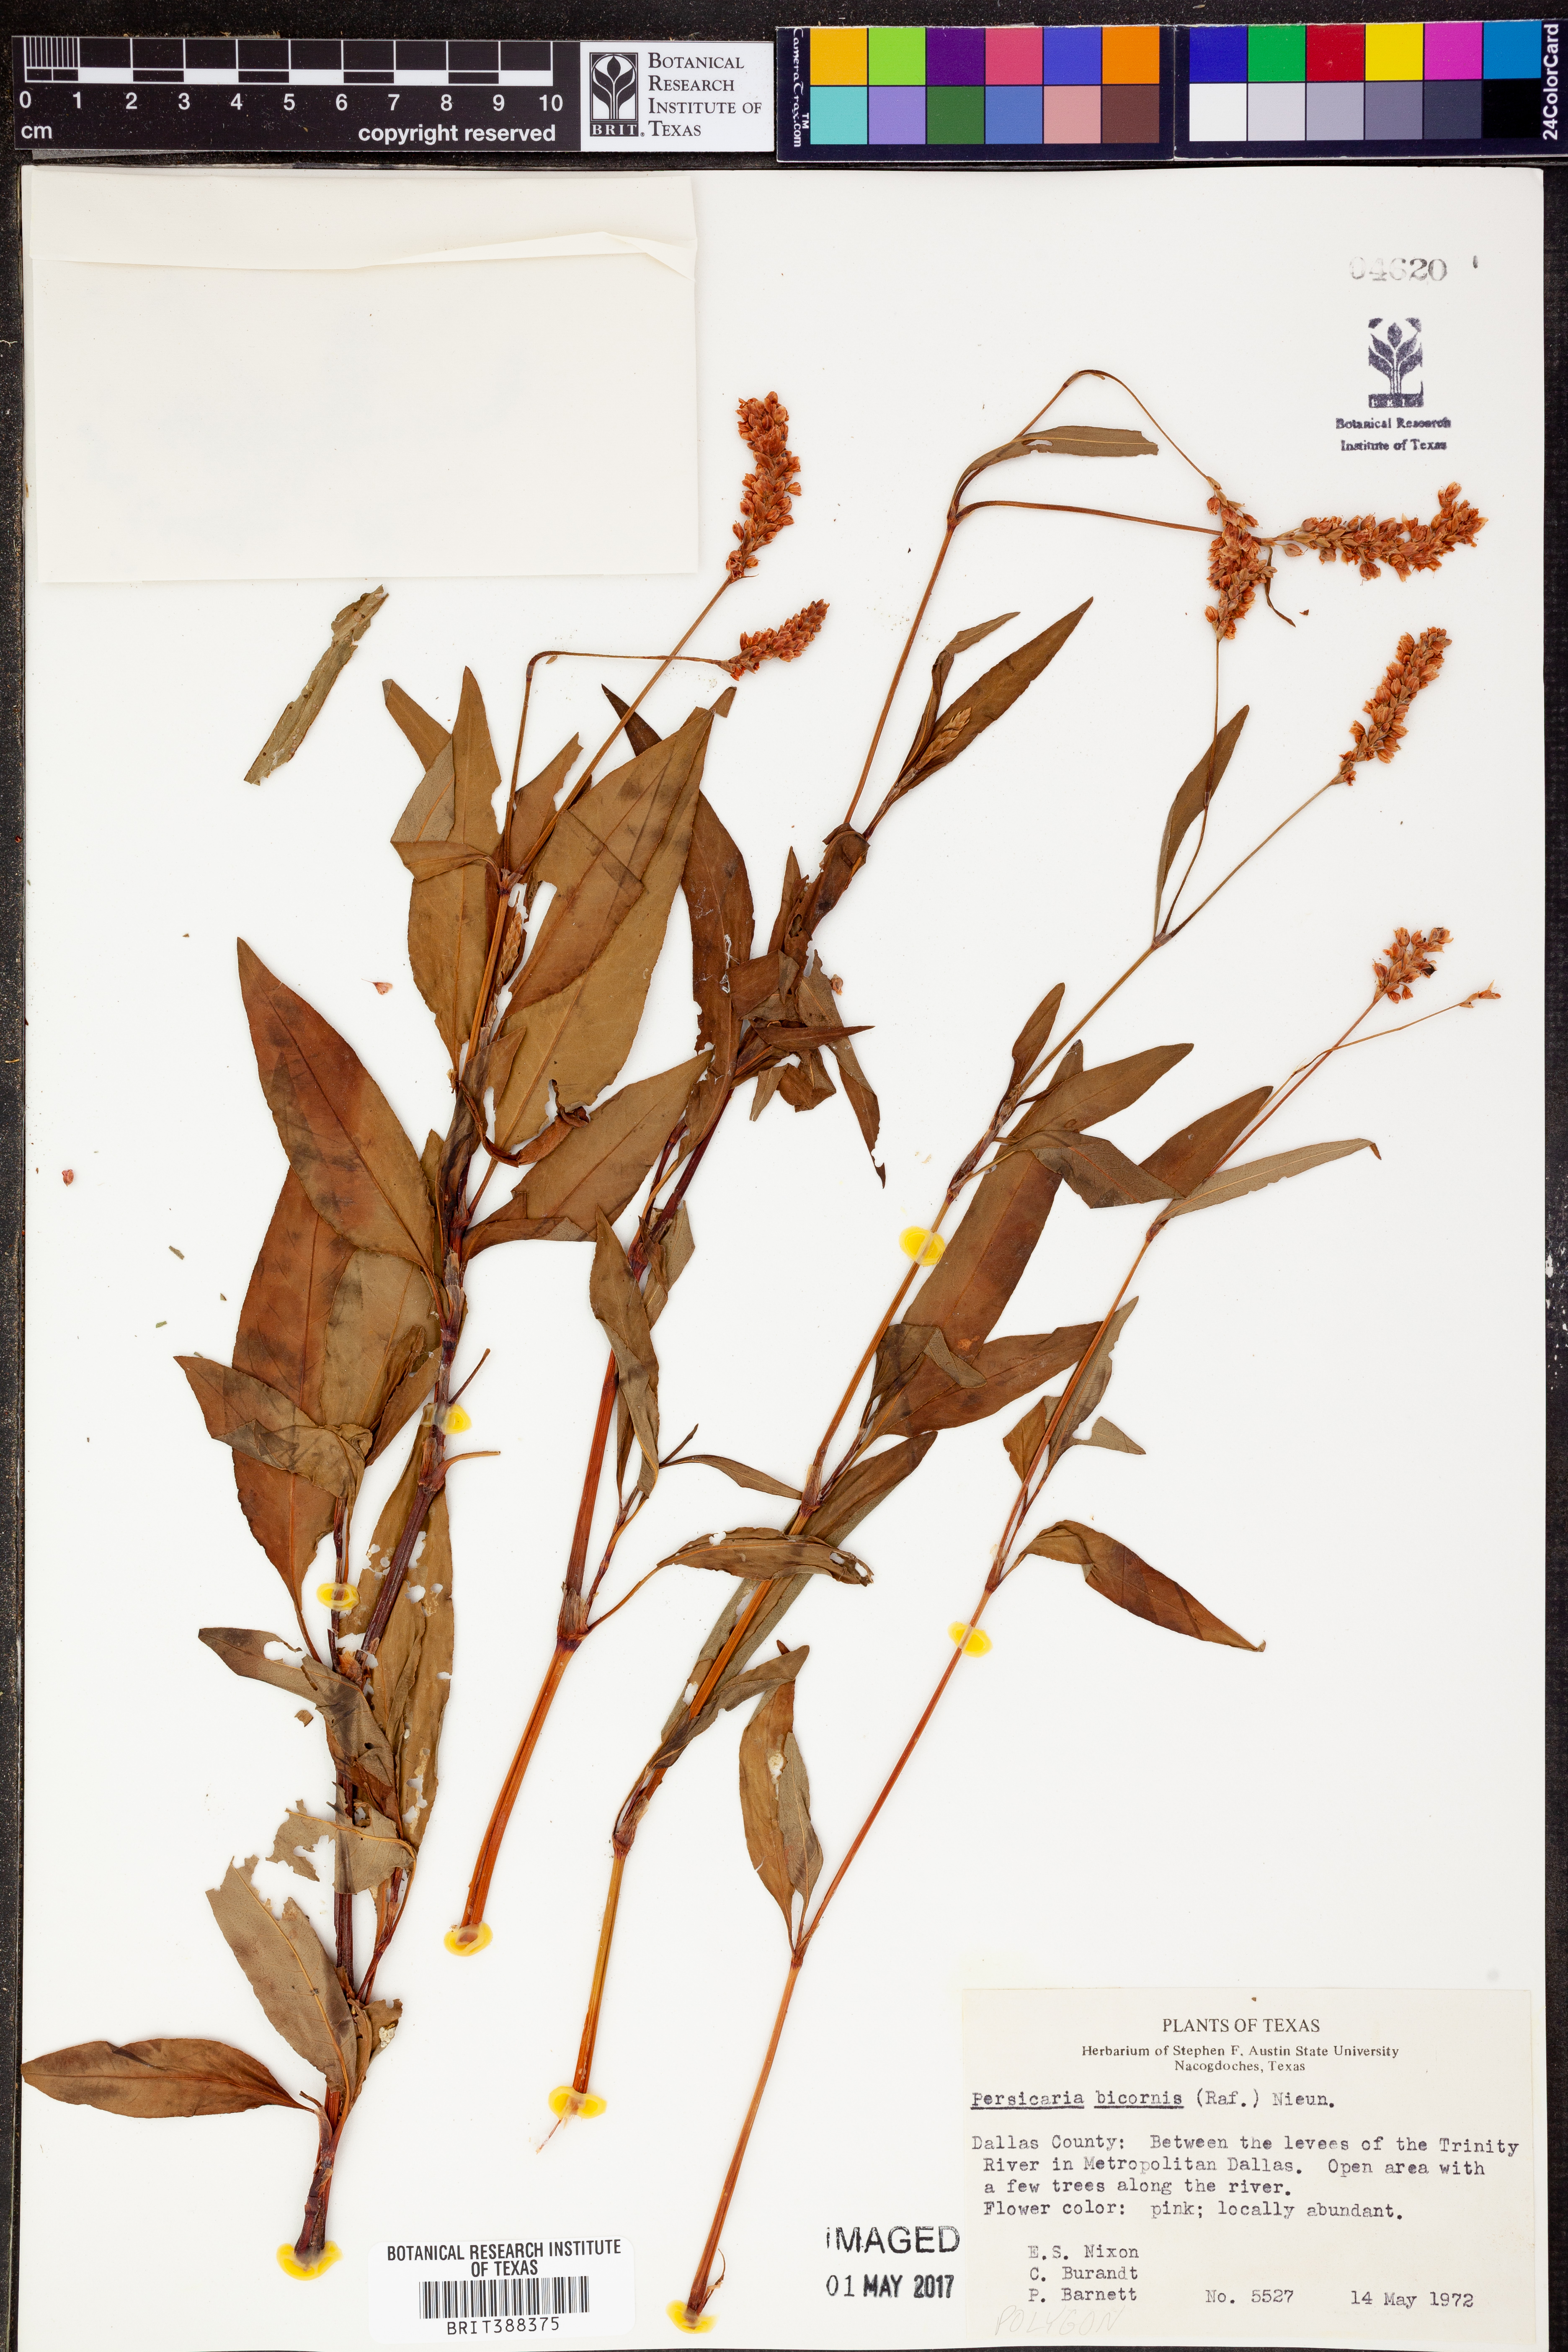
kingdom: Plantae
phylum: Tracheophyta
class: Magnoliopsida
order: Caryophyllales
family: Polygonaceae
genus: Persicaria
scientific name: Persicaria bicornis
